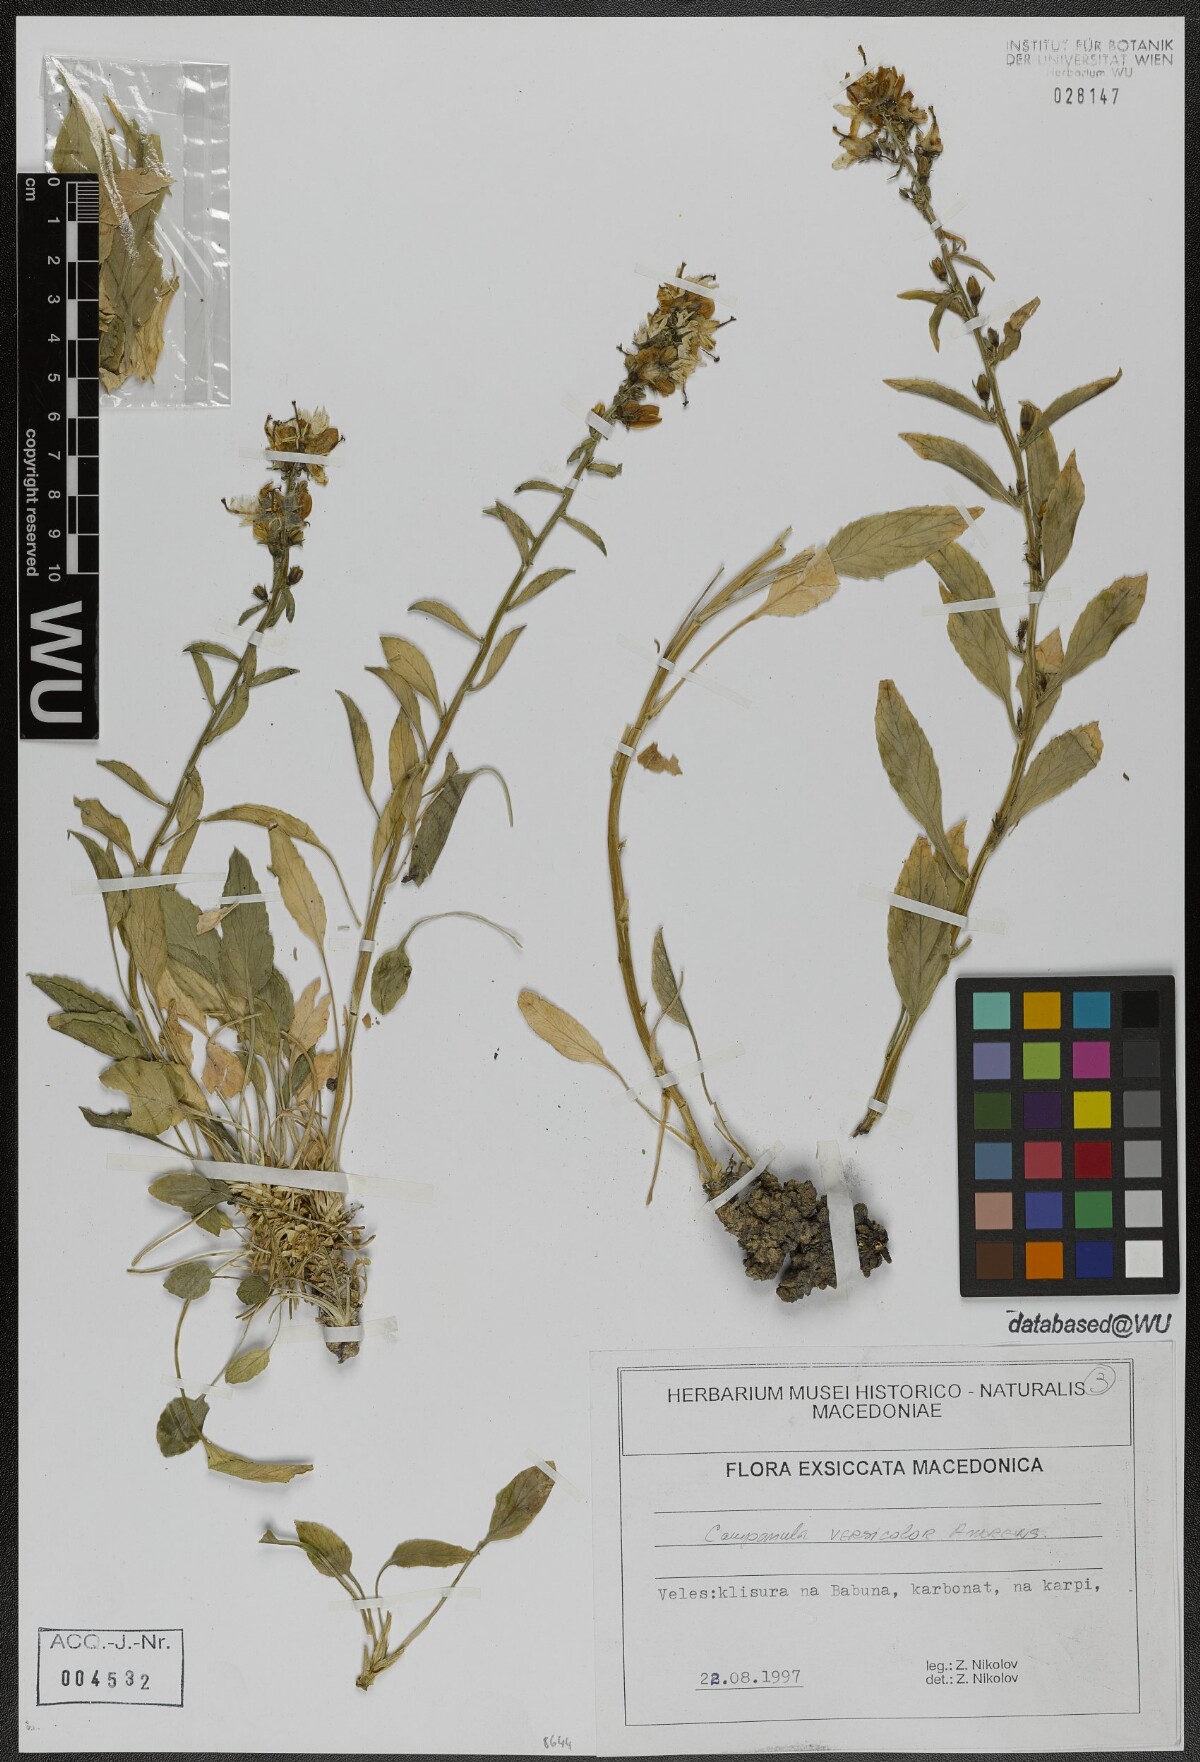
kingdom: Plantae
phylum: Tracheophyta
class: Magnoliopsida
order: Asterales
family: Campanulaceae
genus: Campanula
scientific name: Campanula versicolor
